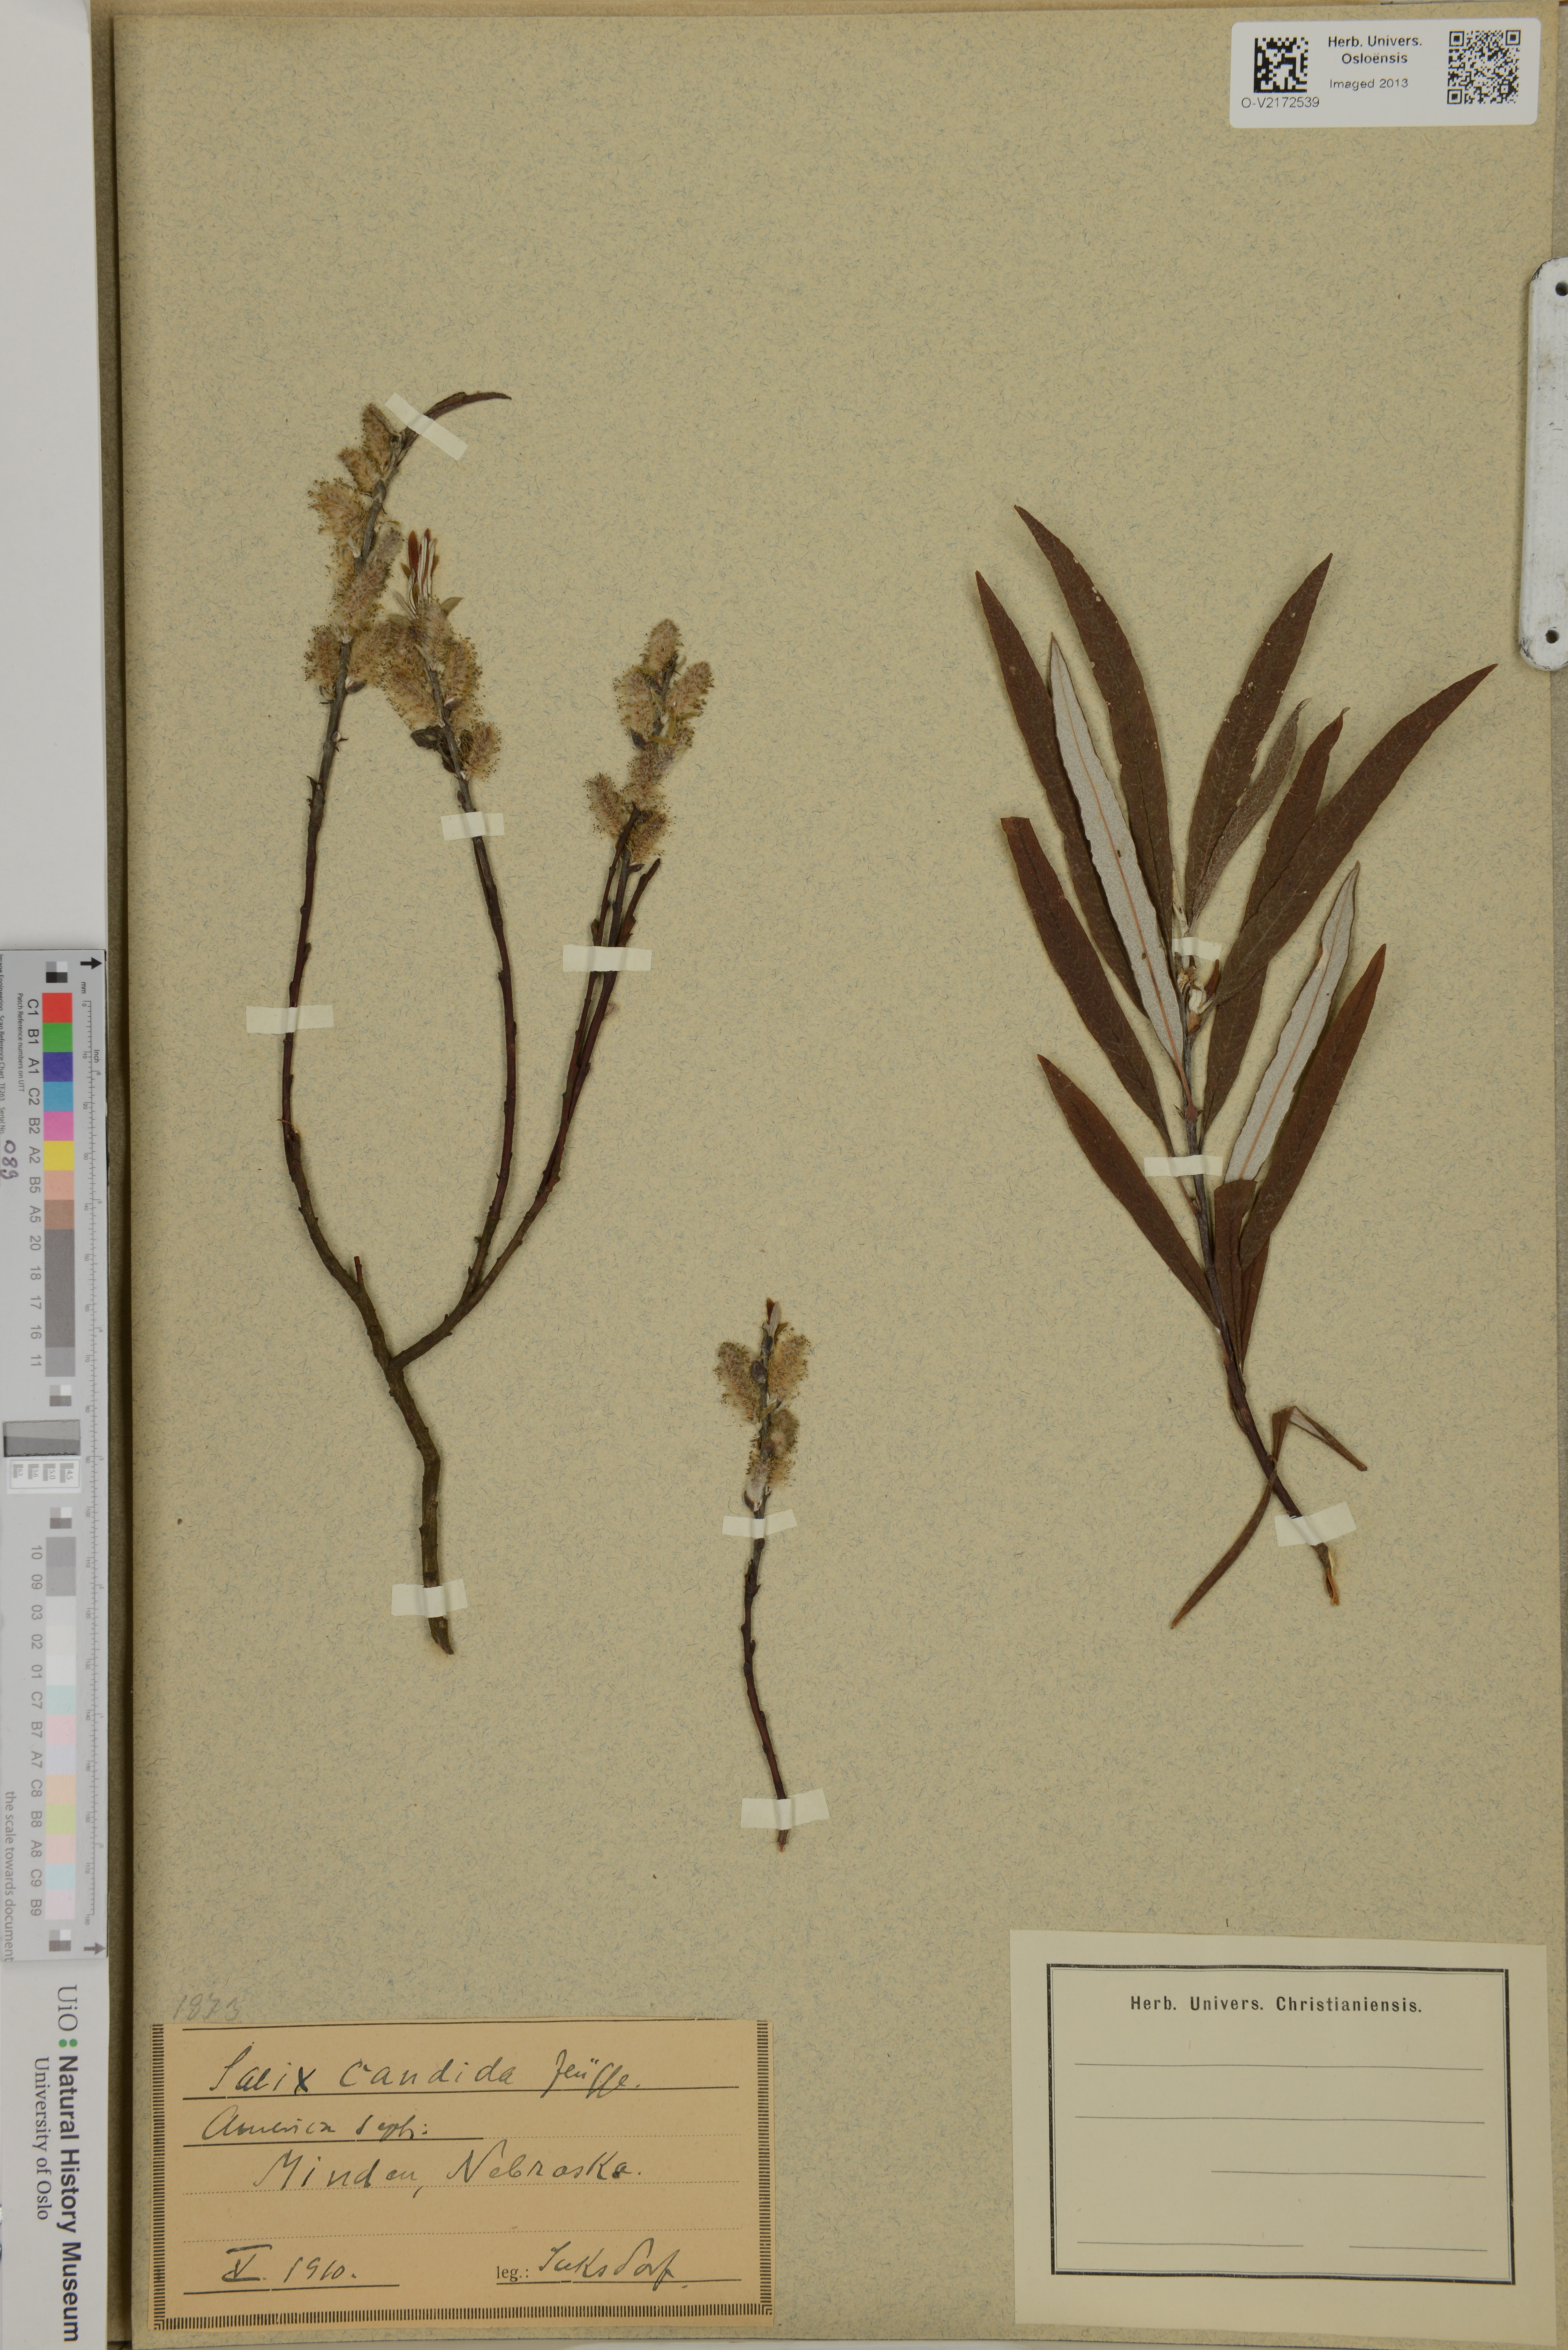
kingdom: Plantae
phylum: Tracheophyta
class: Magnoliopsida
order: Malpighiales
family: Salicaceae
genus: Salix
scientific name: Salix candida
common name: Hoary willow
